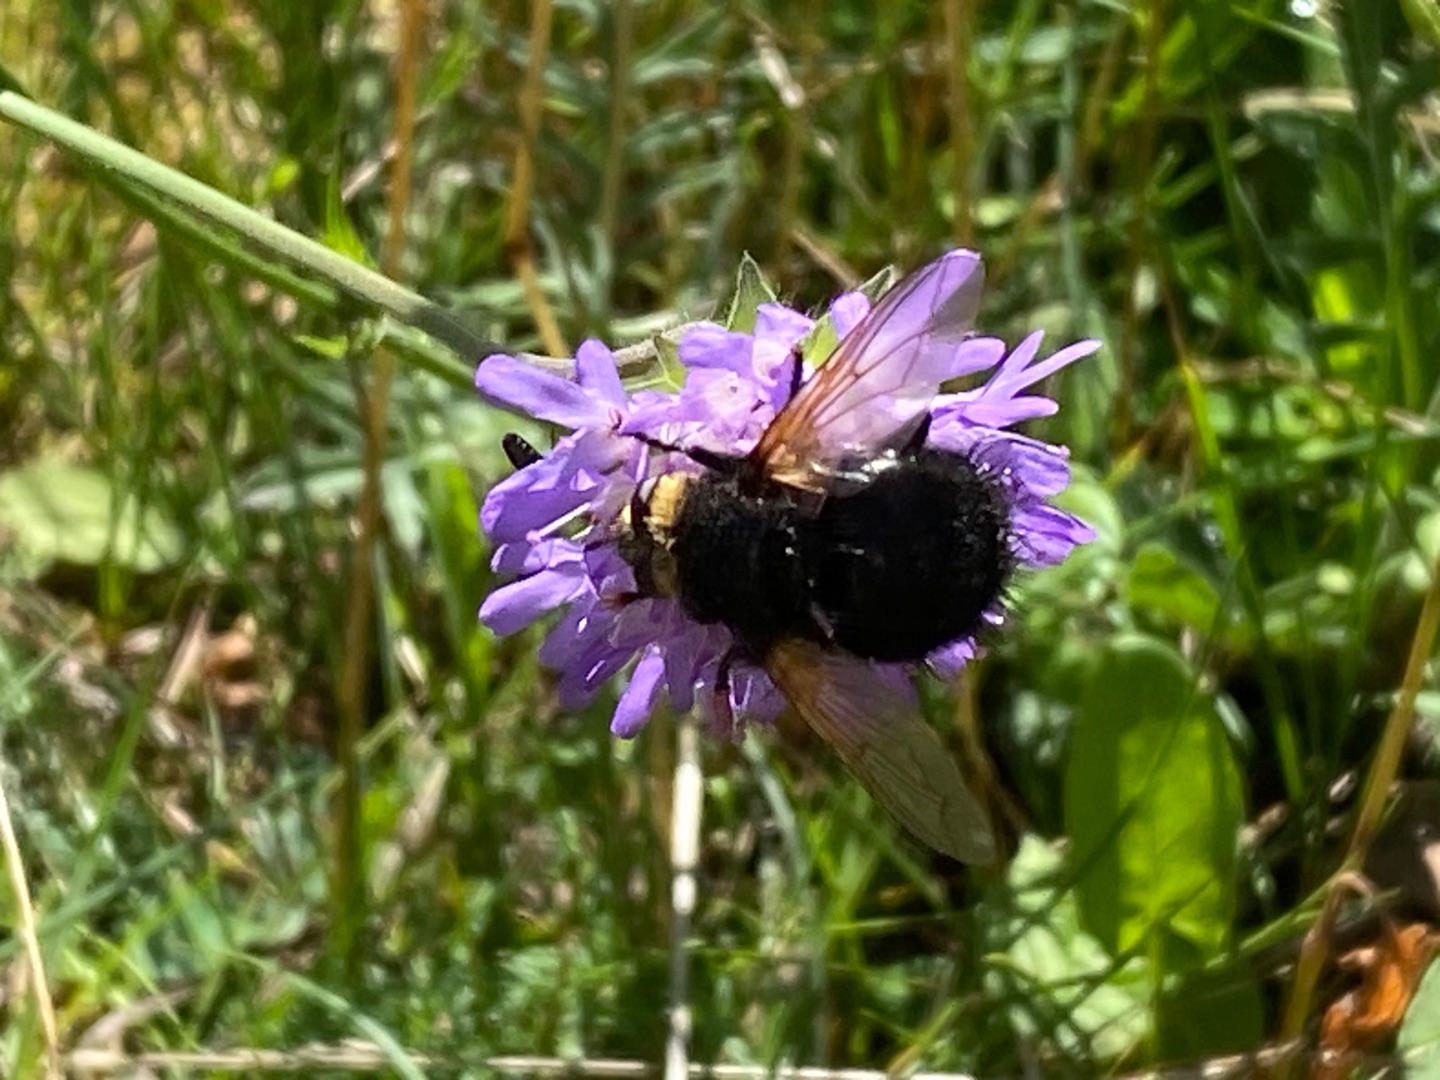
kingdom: Animalia
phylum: Arthropoda
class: Insecta
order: Diptera
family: Tachinidae
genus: Tachina
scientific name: Tachina grossa
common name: Kæmpefluen Harald
